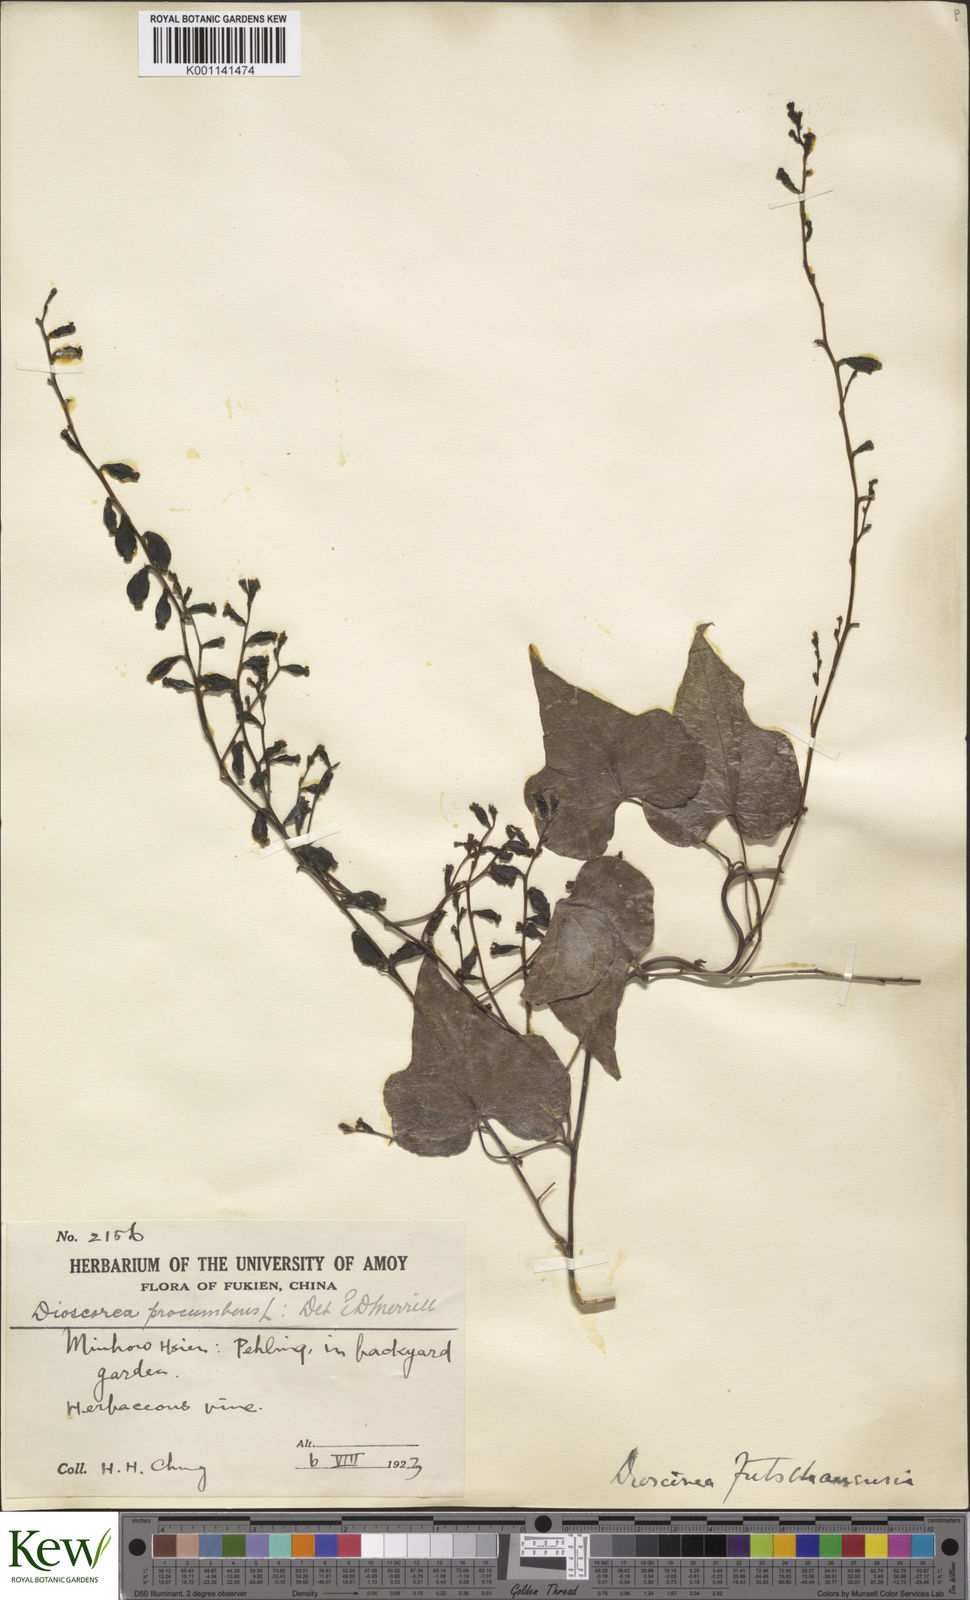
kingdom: Plantae
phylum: Tracheophyta
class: Liliopsida
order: Dioscoreales
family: Dioscoreaceae
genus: Dioscorea
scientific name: Dioscorea futschauensis
